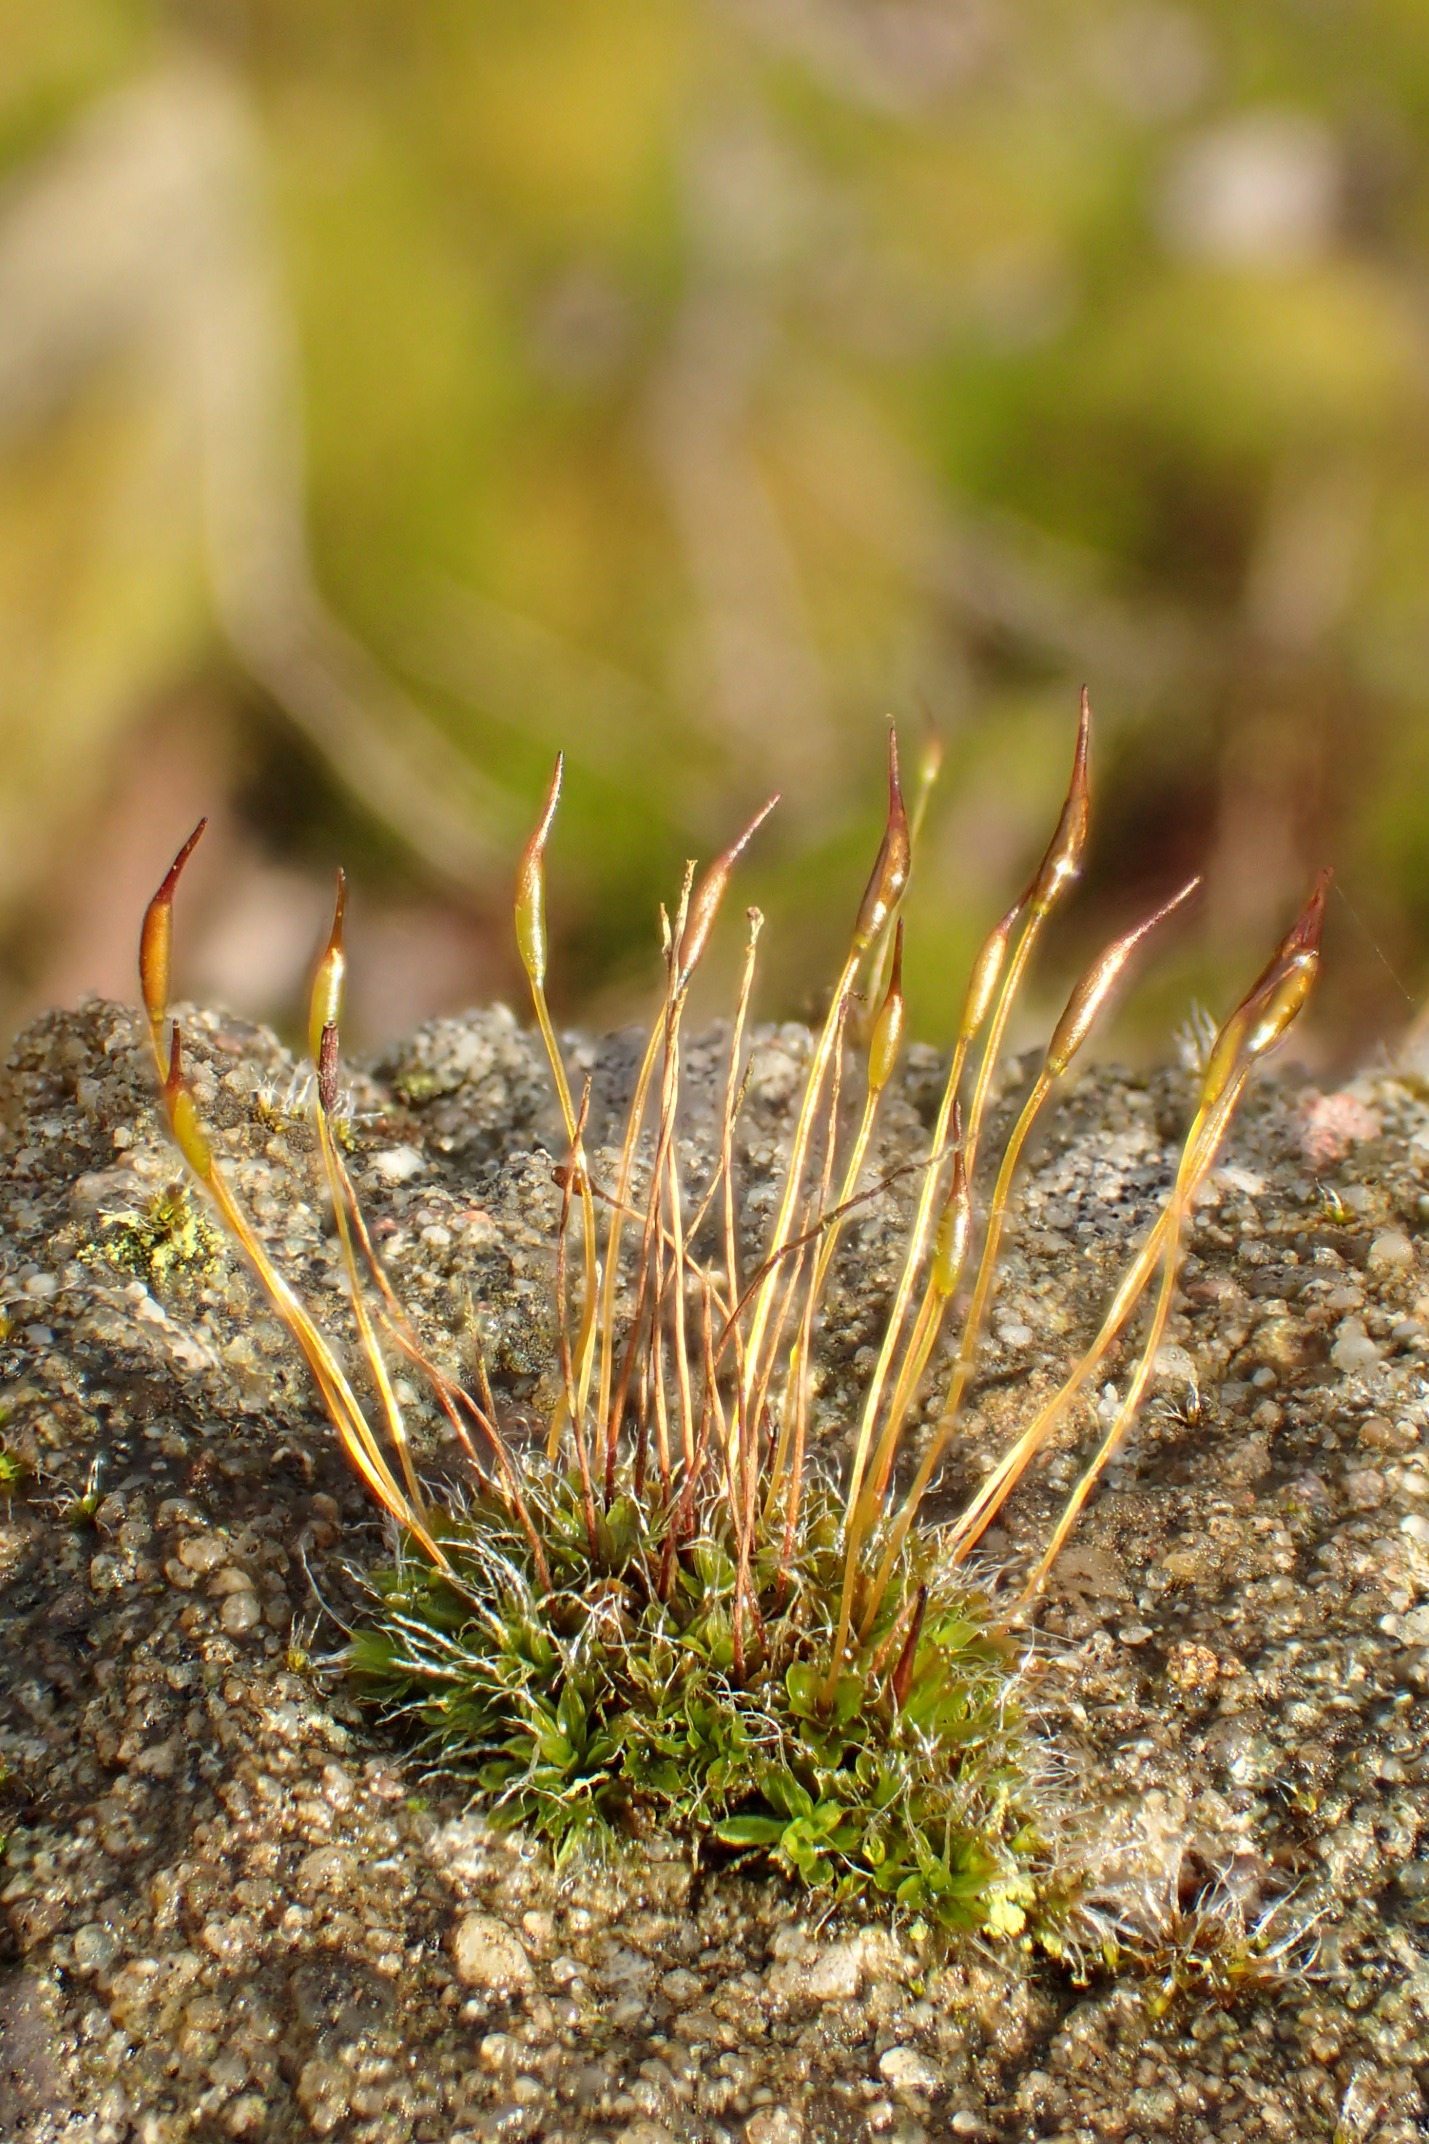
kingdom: Plantae
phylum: Bryophyta
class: Bryopsida
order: Pottiales
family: Pottiaceae
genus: Tortula
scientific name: Tortula muralis
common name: Mur-snotand
